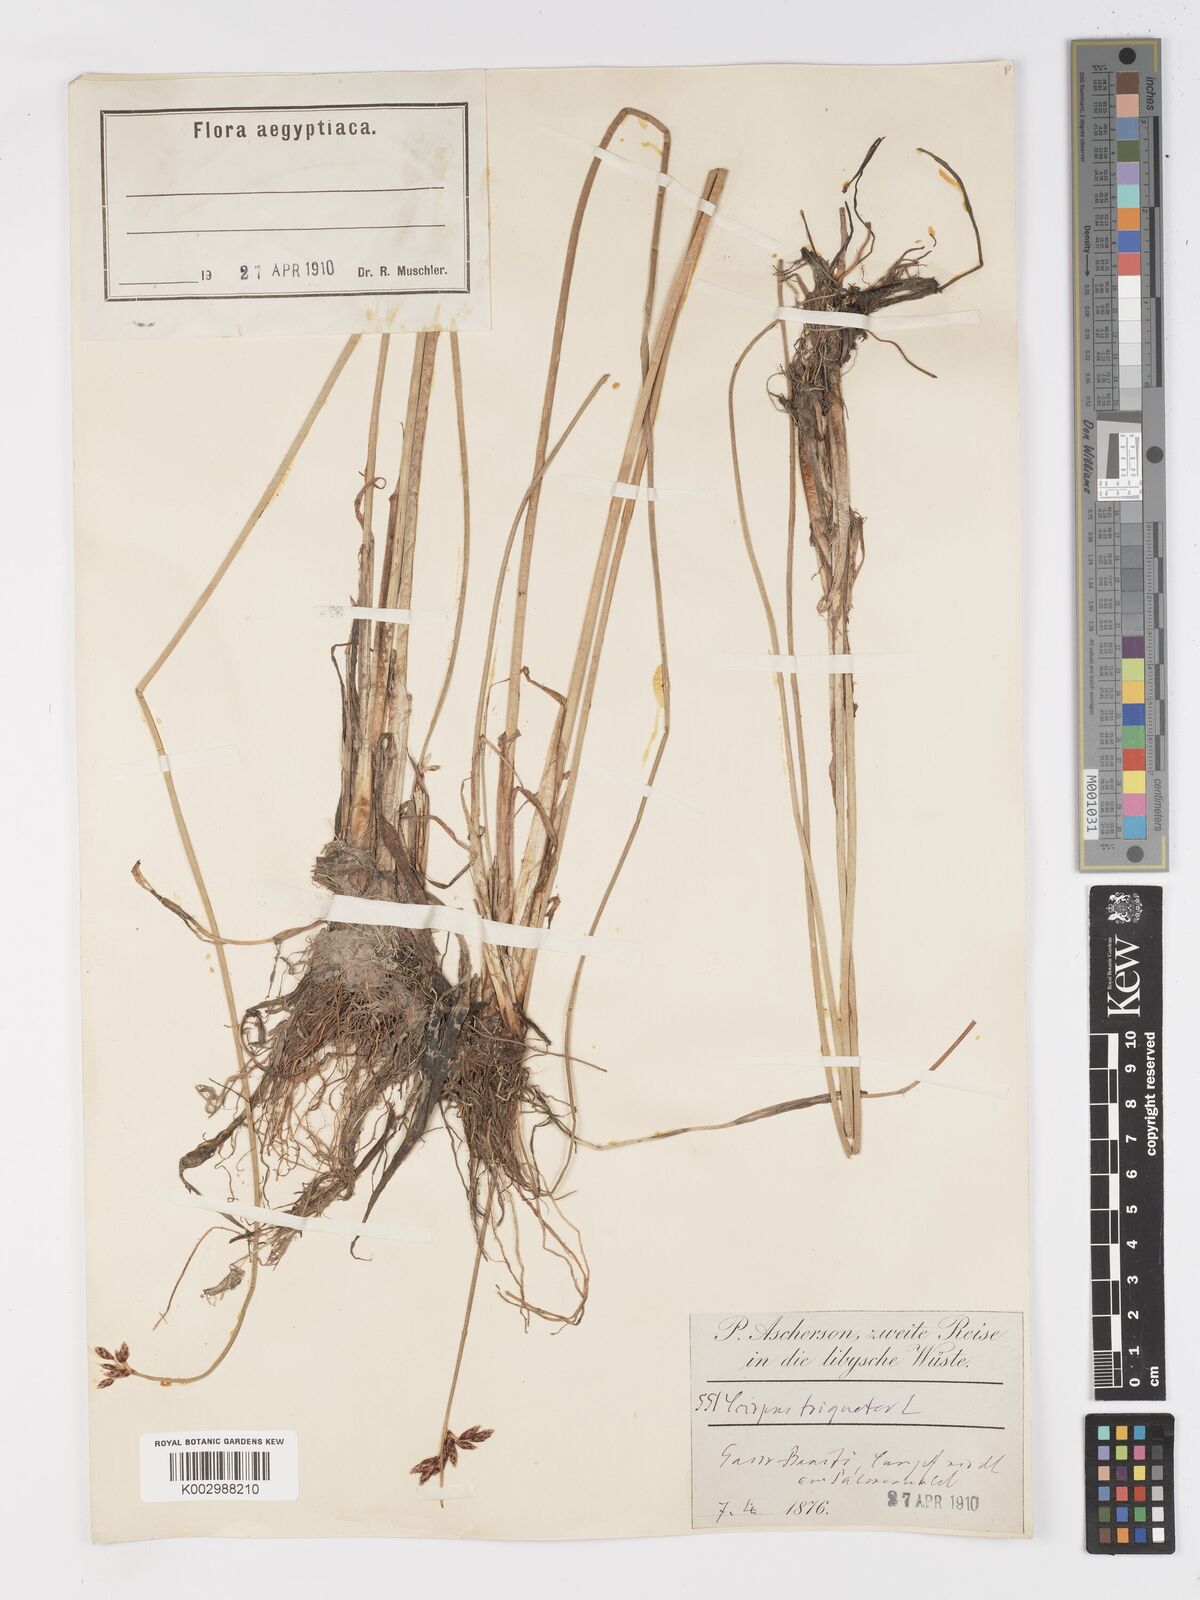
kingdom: Plantae
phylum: Tracheophyta
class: Liliopsida
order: Poales
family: Cyperaceae
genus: Schoenoplectus
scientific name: Schoenoplectus litoralis
